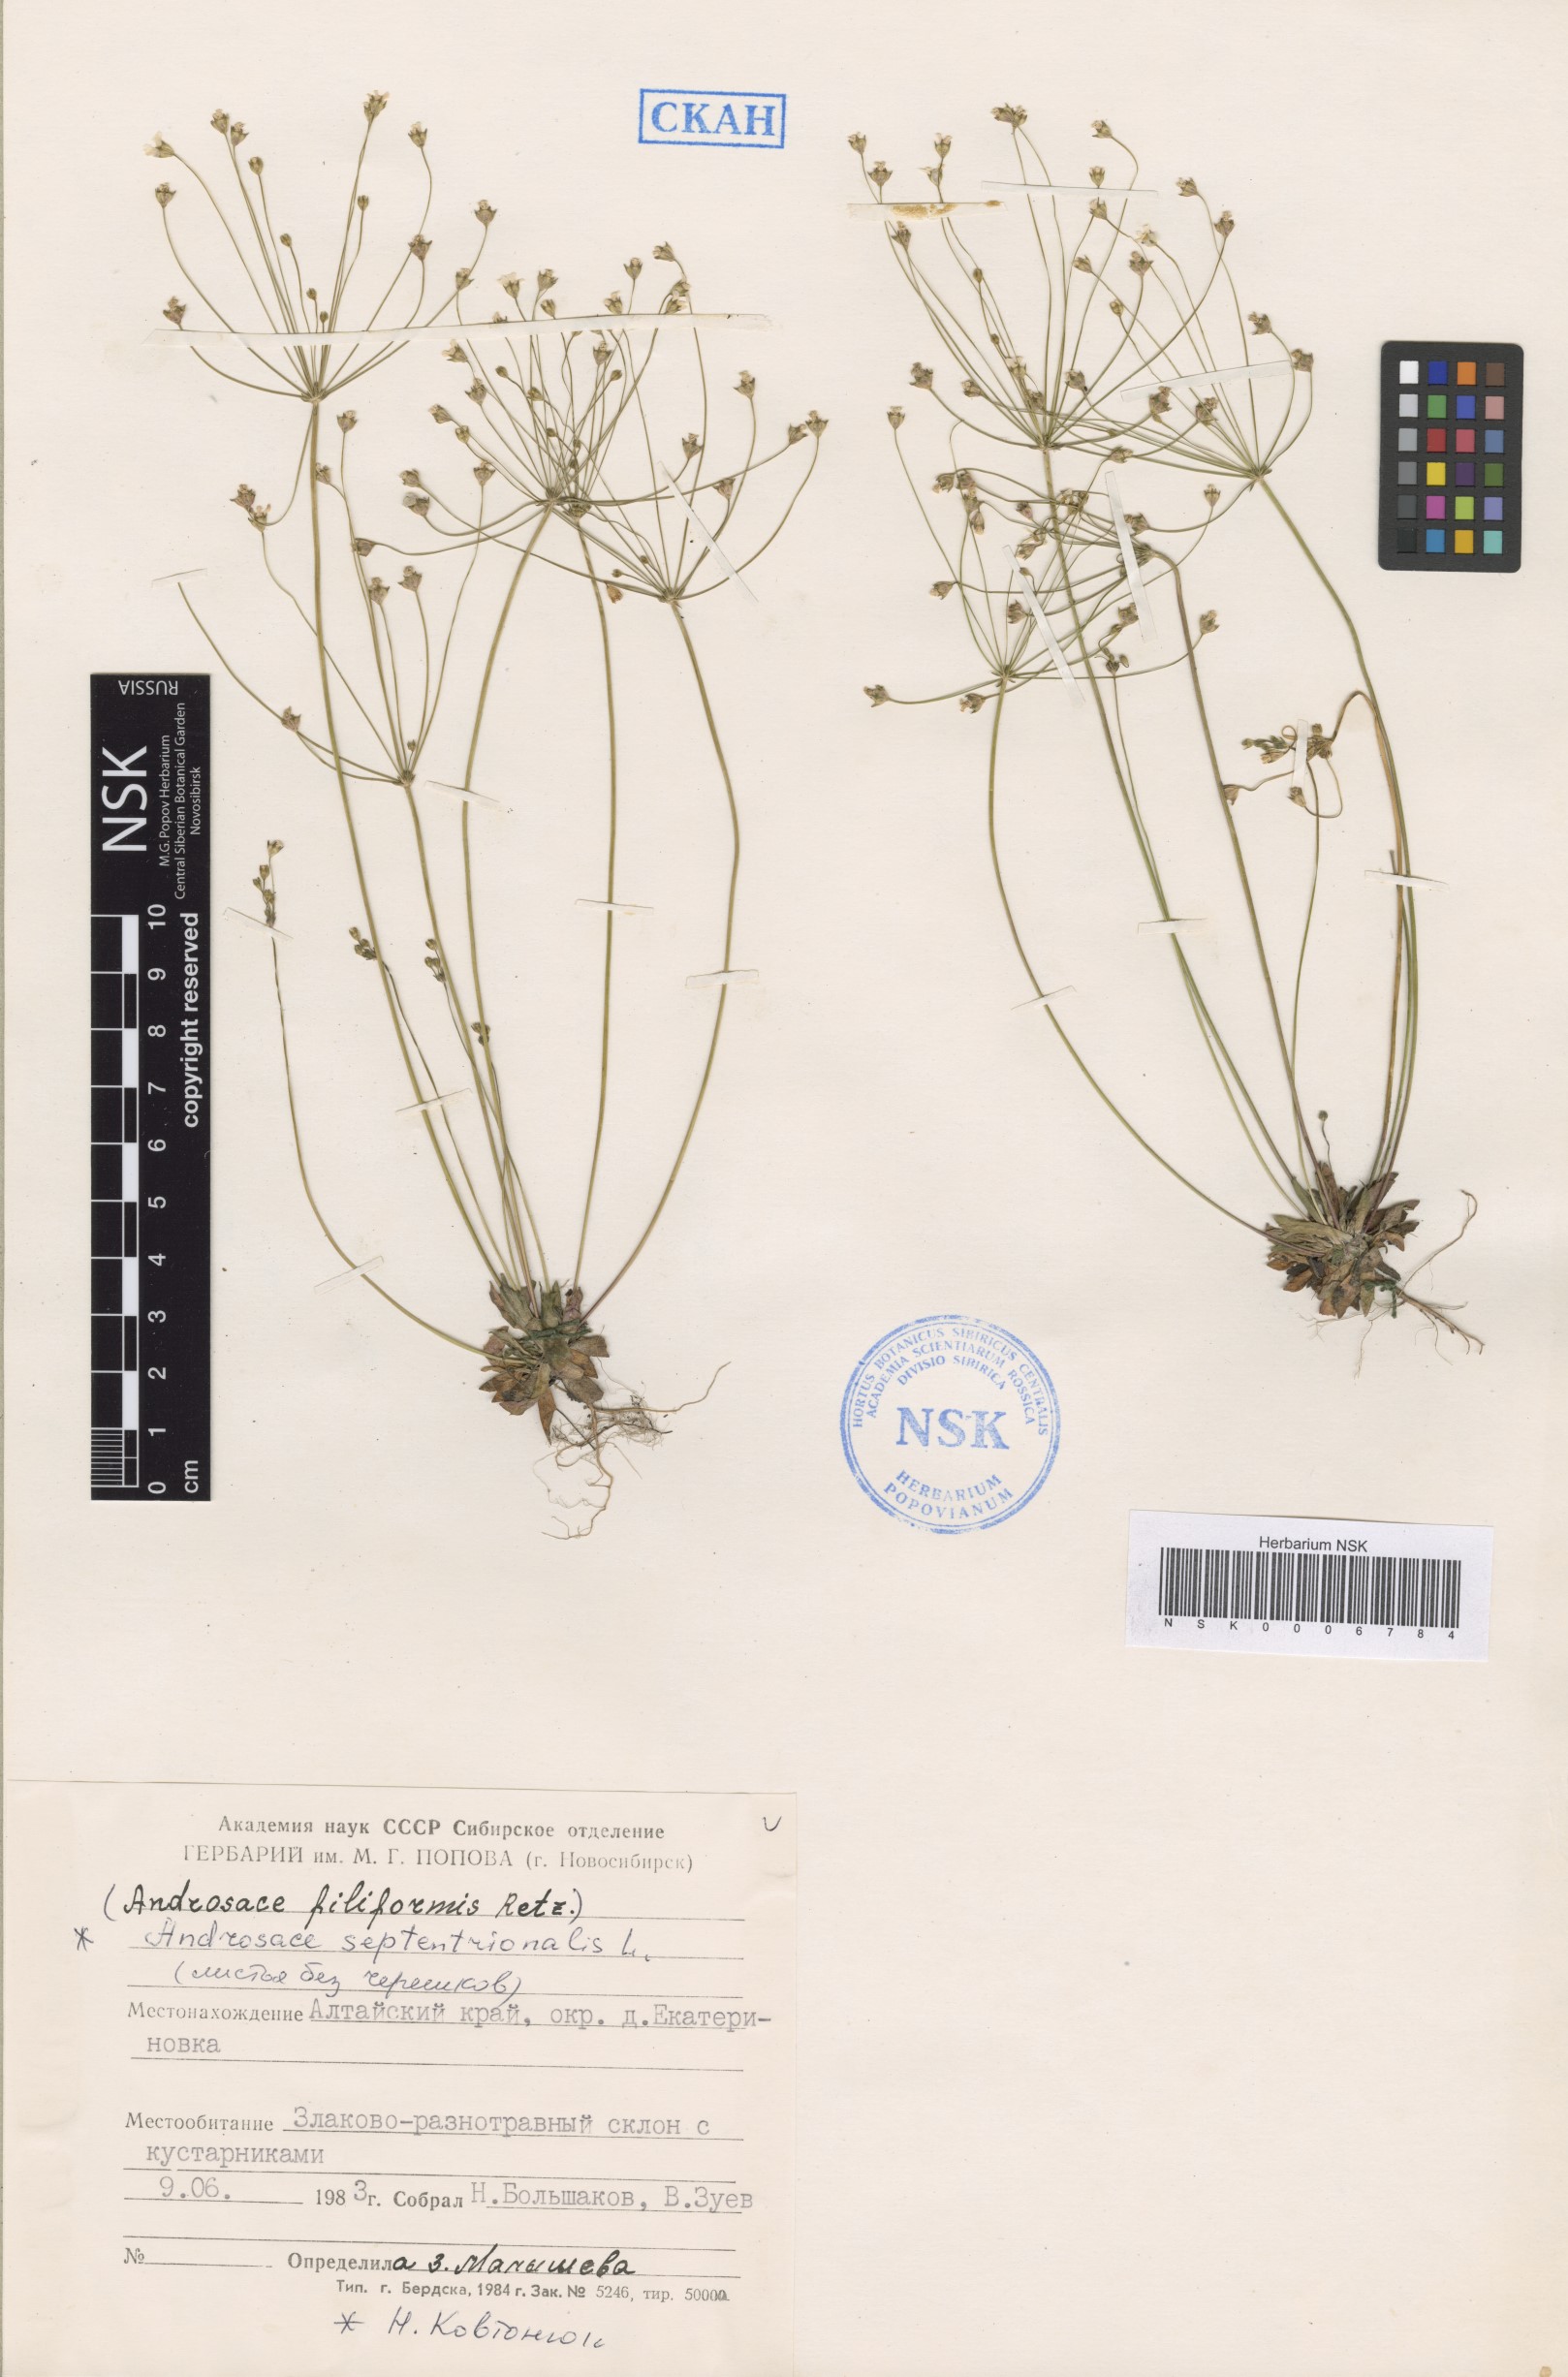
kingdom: Plantae
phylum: Tracheophyta
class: Magnoliopsida
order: Ericales
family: Primulaceae
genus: Androsace
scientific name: Androsace septentrionalis
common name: Hairy northern fairy-candelabra
